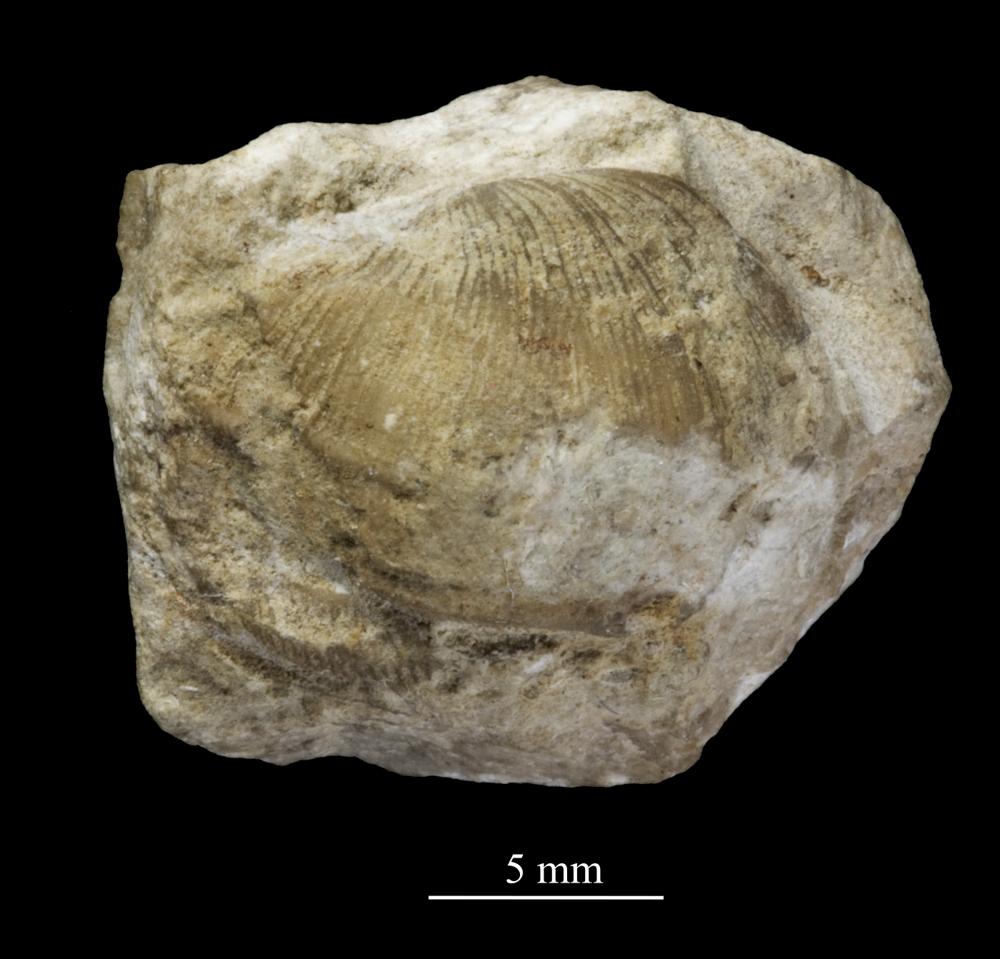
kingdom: Animalia
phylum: Mollusca
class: Gastropoda
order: Pleurotomariida
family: Phanerotrematidae
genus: Brachytomaria
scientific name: Brachytomaria nodulosa
